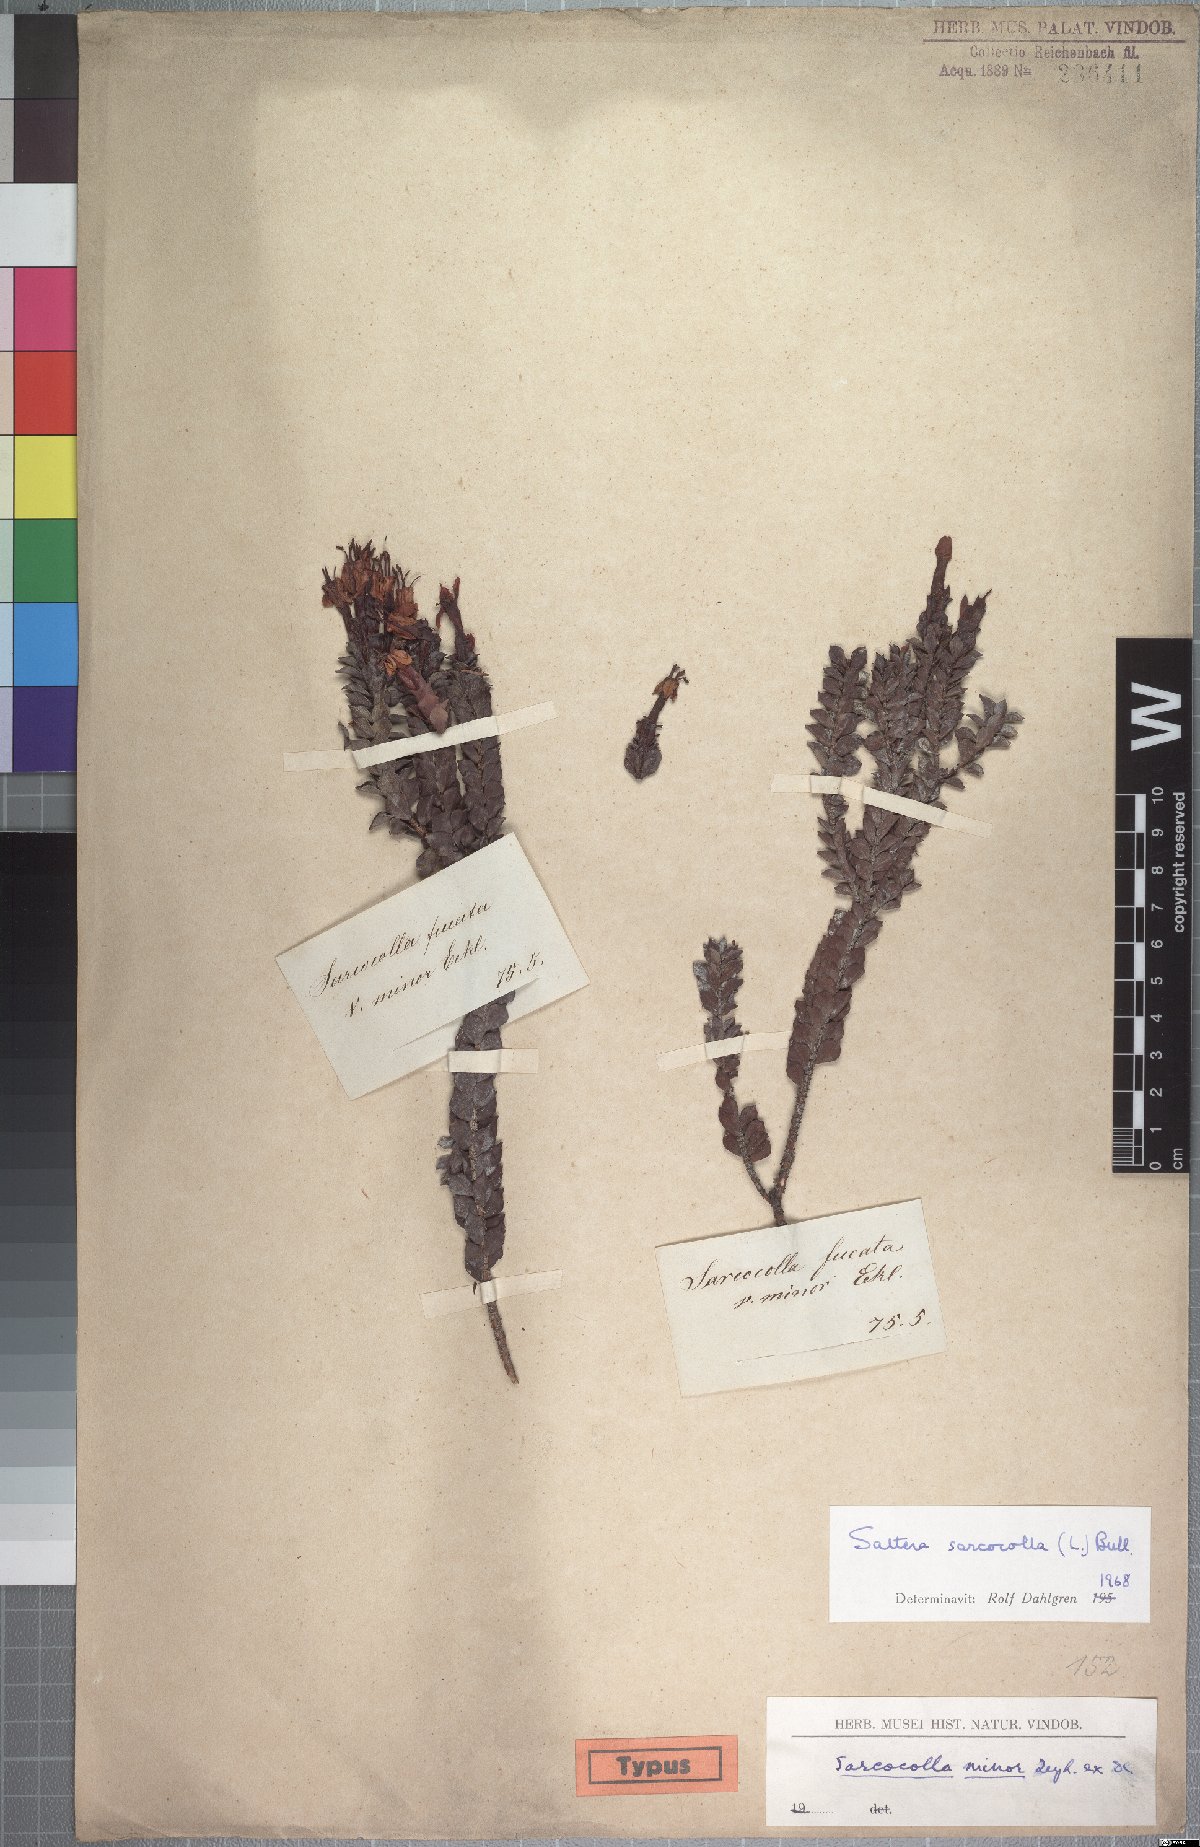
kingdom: Plantae
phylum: Tracheophyta
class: Magnoliopsida
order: Myrtales
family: Penaeaceae
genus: Saltera
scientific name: Saltera sarcocolla
